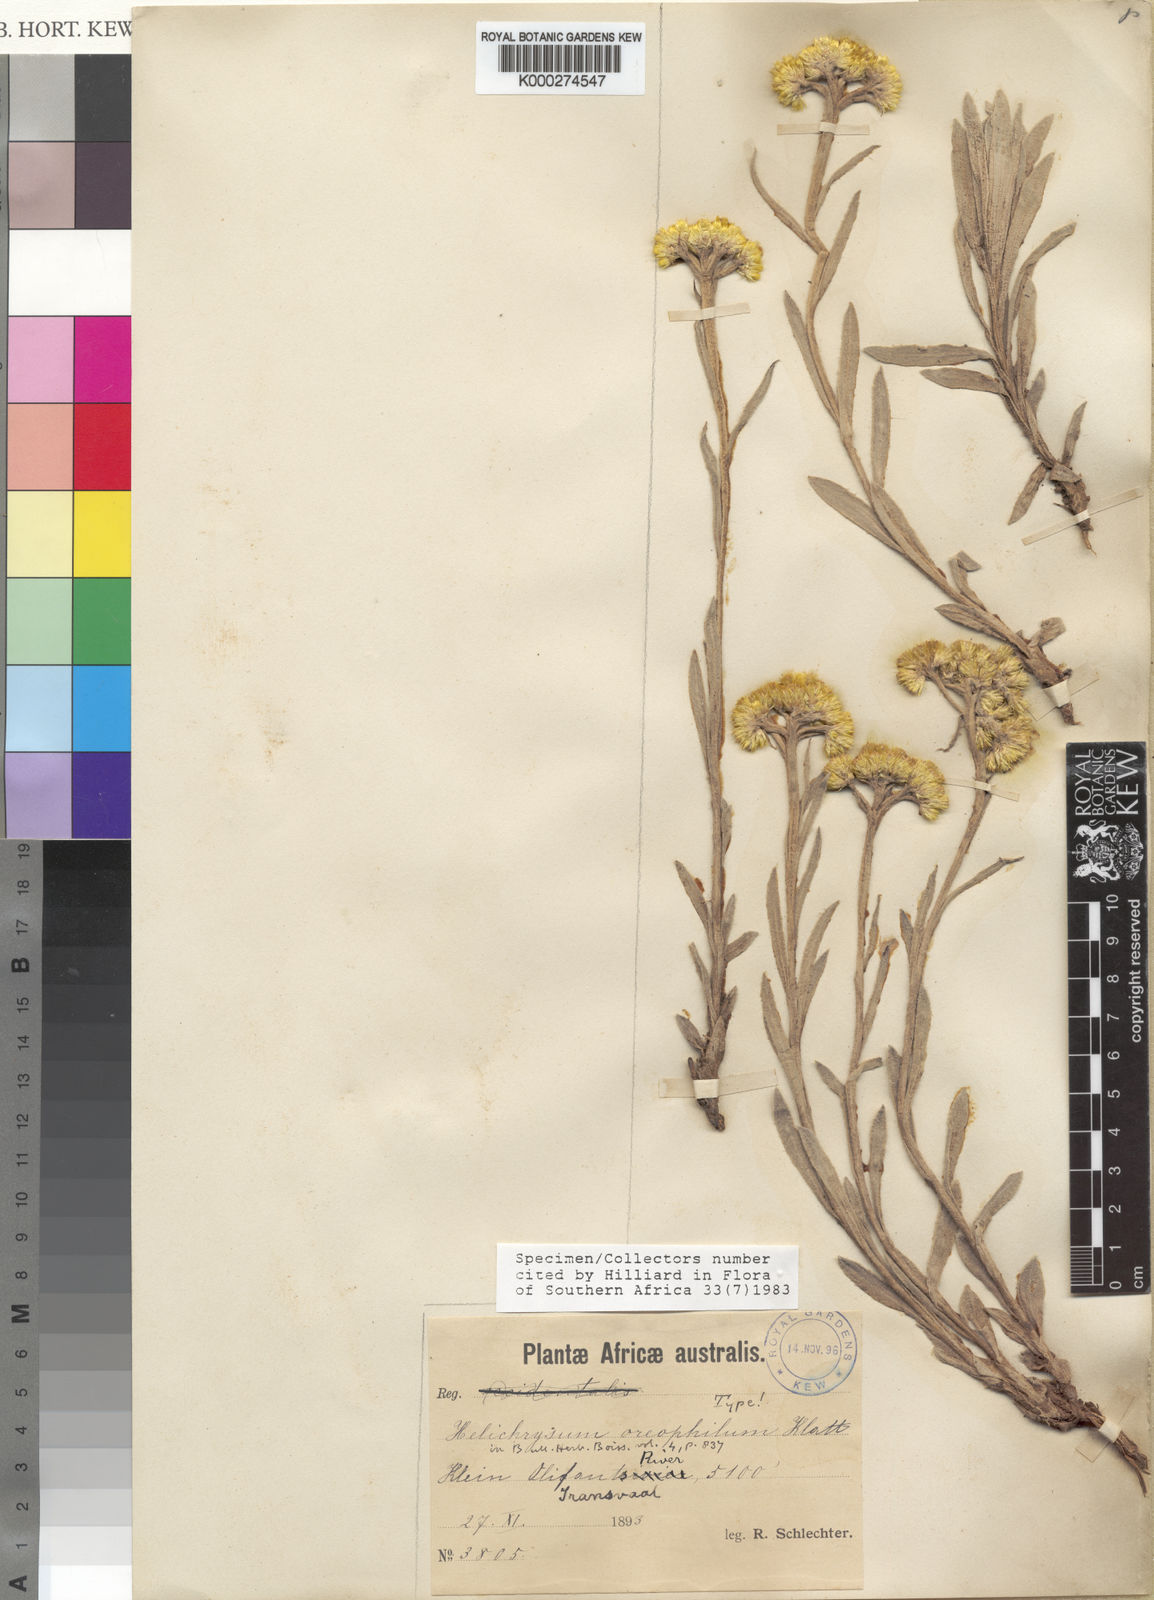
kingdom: Plantae
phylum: Tracheophyta
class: Magnoliopsida
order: Asterales
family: Asteraceae
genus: Helichrysum
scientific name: Helichrysum oreophilum
